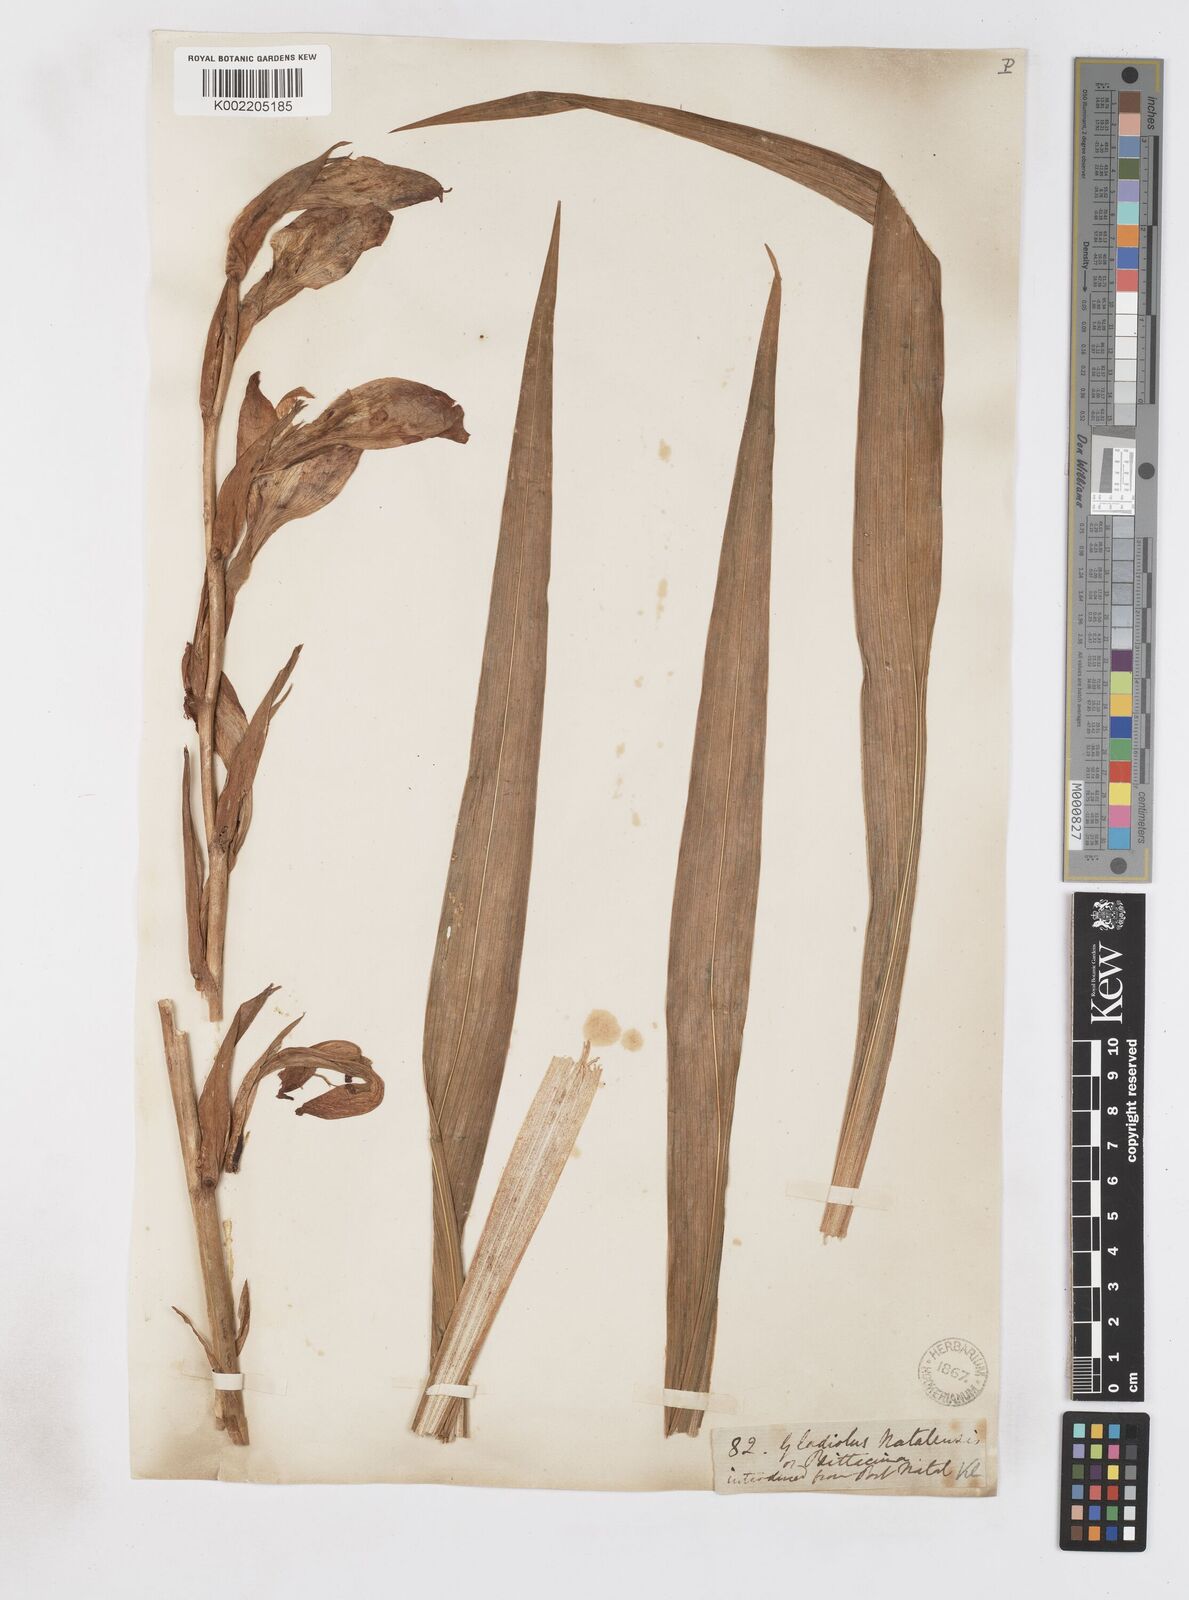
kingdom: Plantae
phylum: Tracheophyta
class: Liliopsida
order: Asparagales
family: Iridaceae
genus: Gladiolus
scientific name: Gladiolus dalenii
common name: Cornflag
